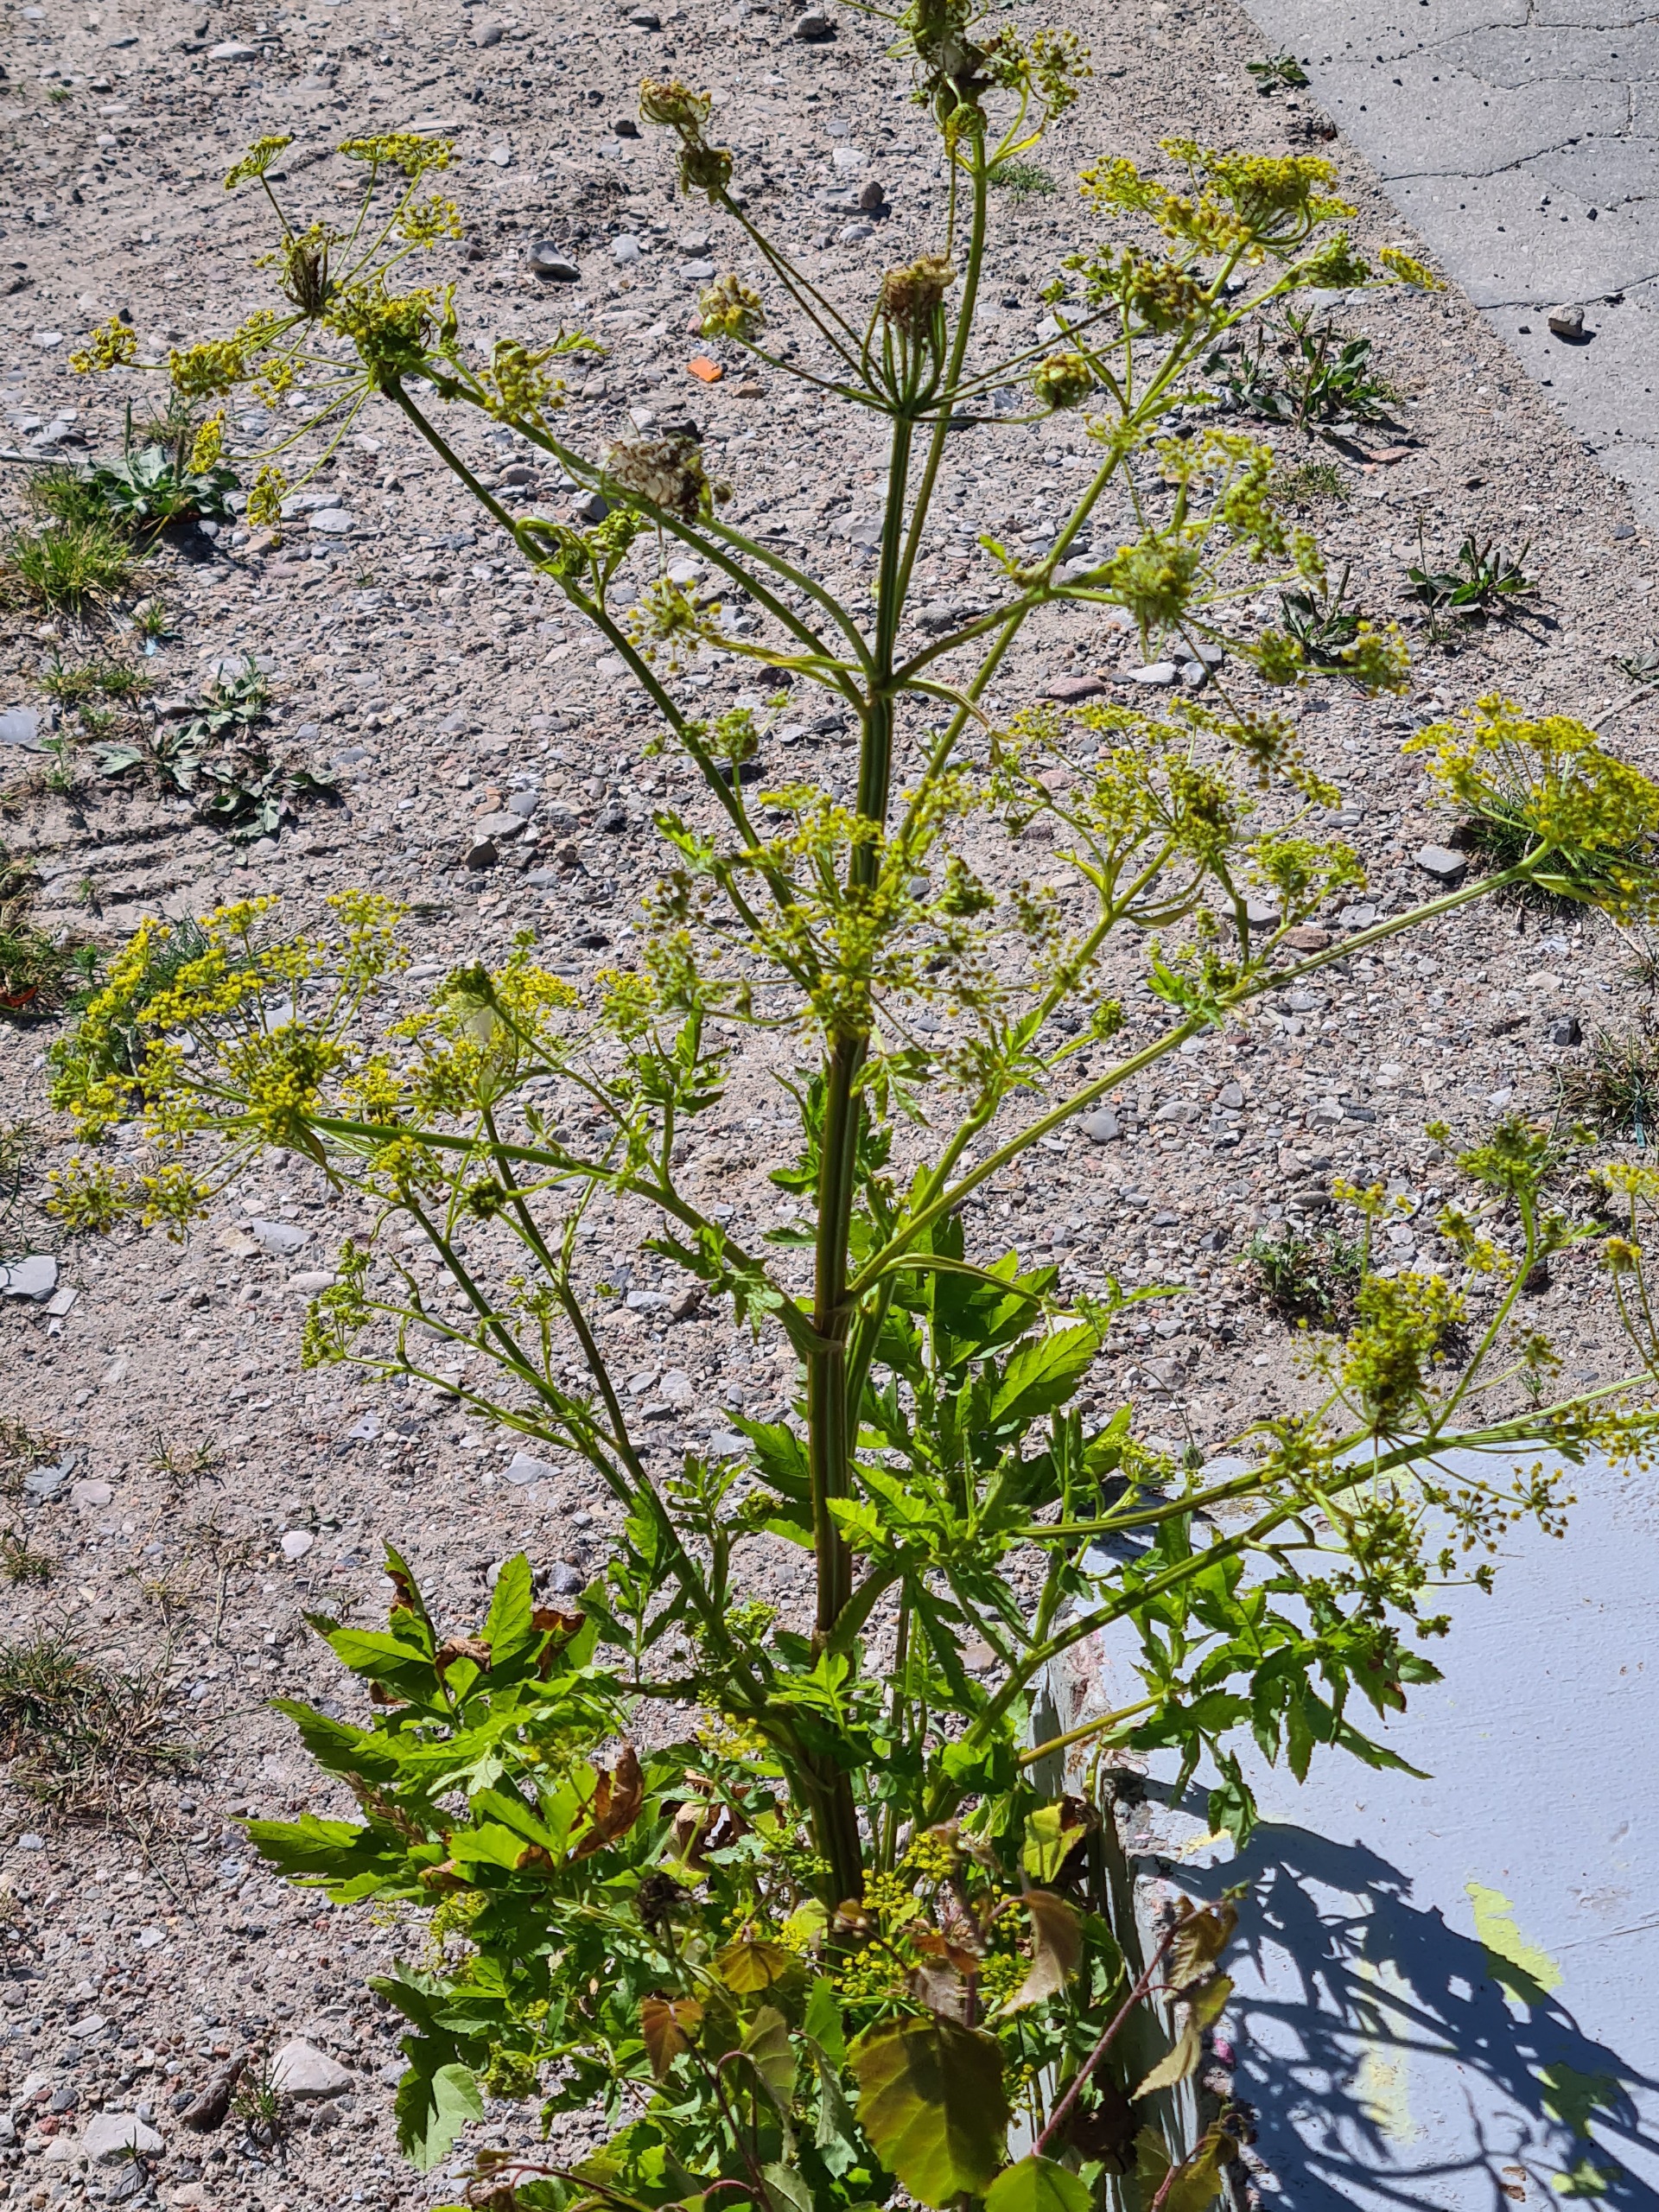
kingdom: Plantae
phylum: Tracheophyta
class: Magnoliopsida
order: Apiales
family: Apiaceae
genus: Pastinaca
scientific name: Pastinaca sativa
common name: Pastinak
